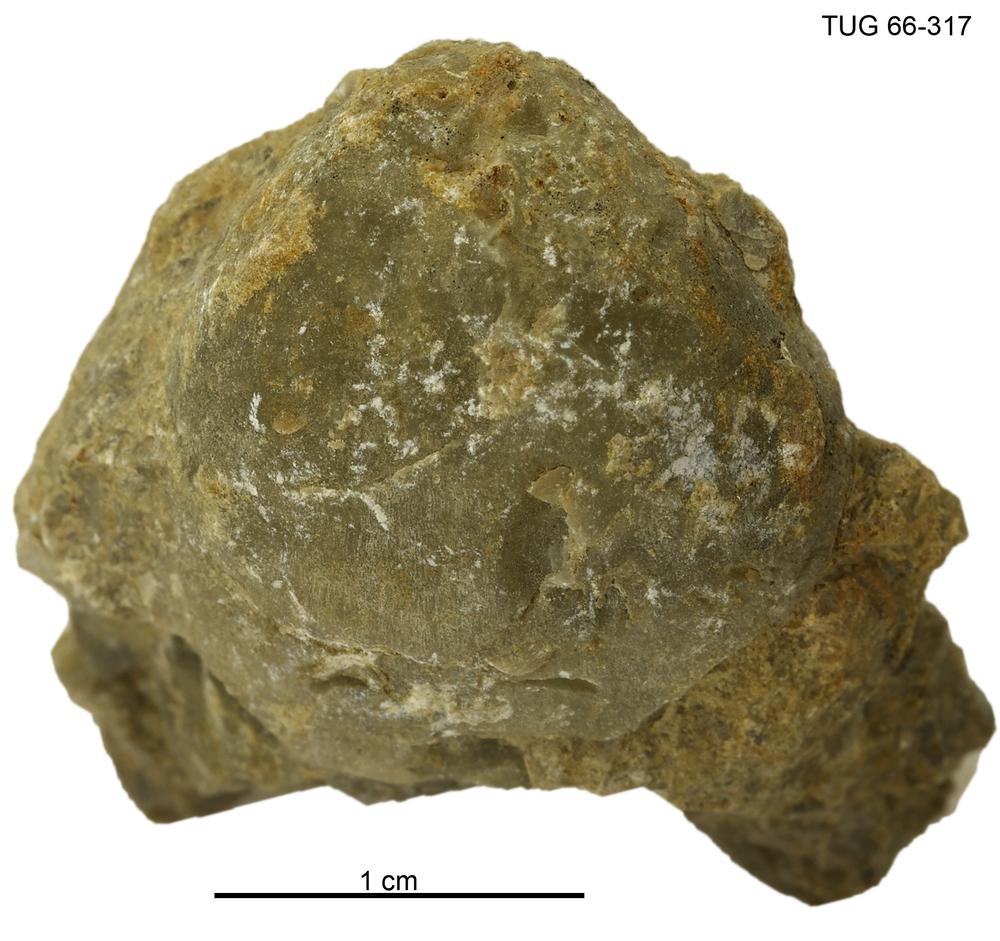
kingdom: Animalia
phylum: Brachiopoda
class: Rhynchonellata
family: Virgianidae
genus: Borealis
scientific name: Borealis
